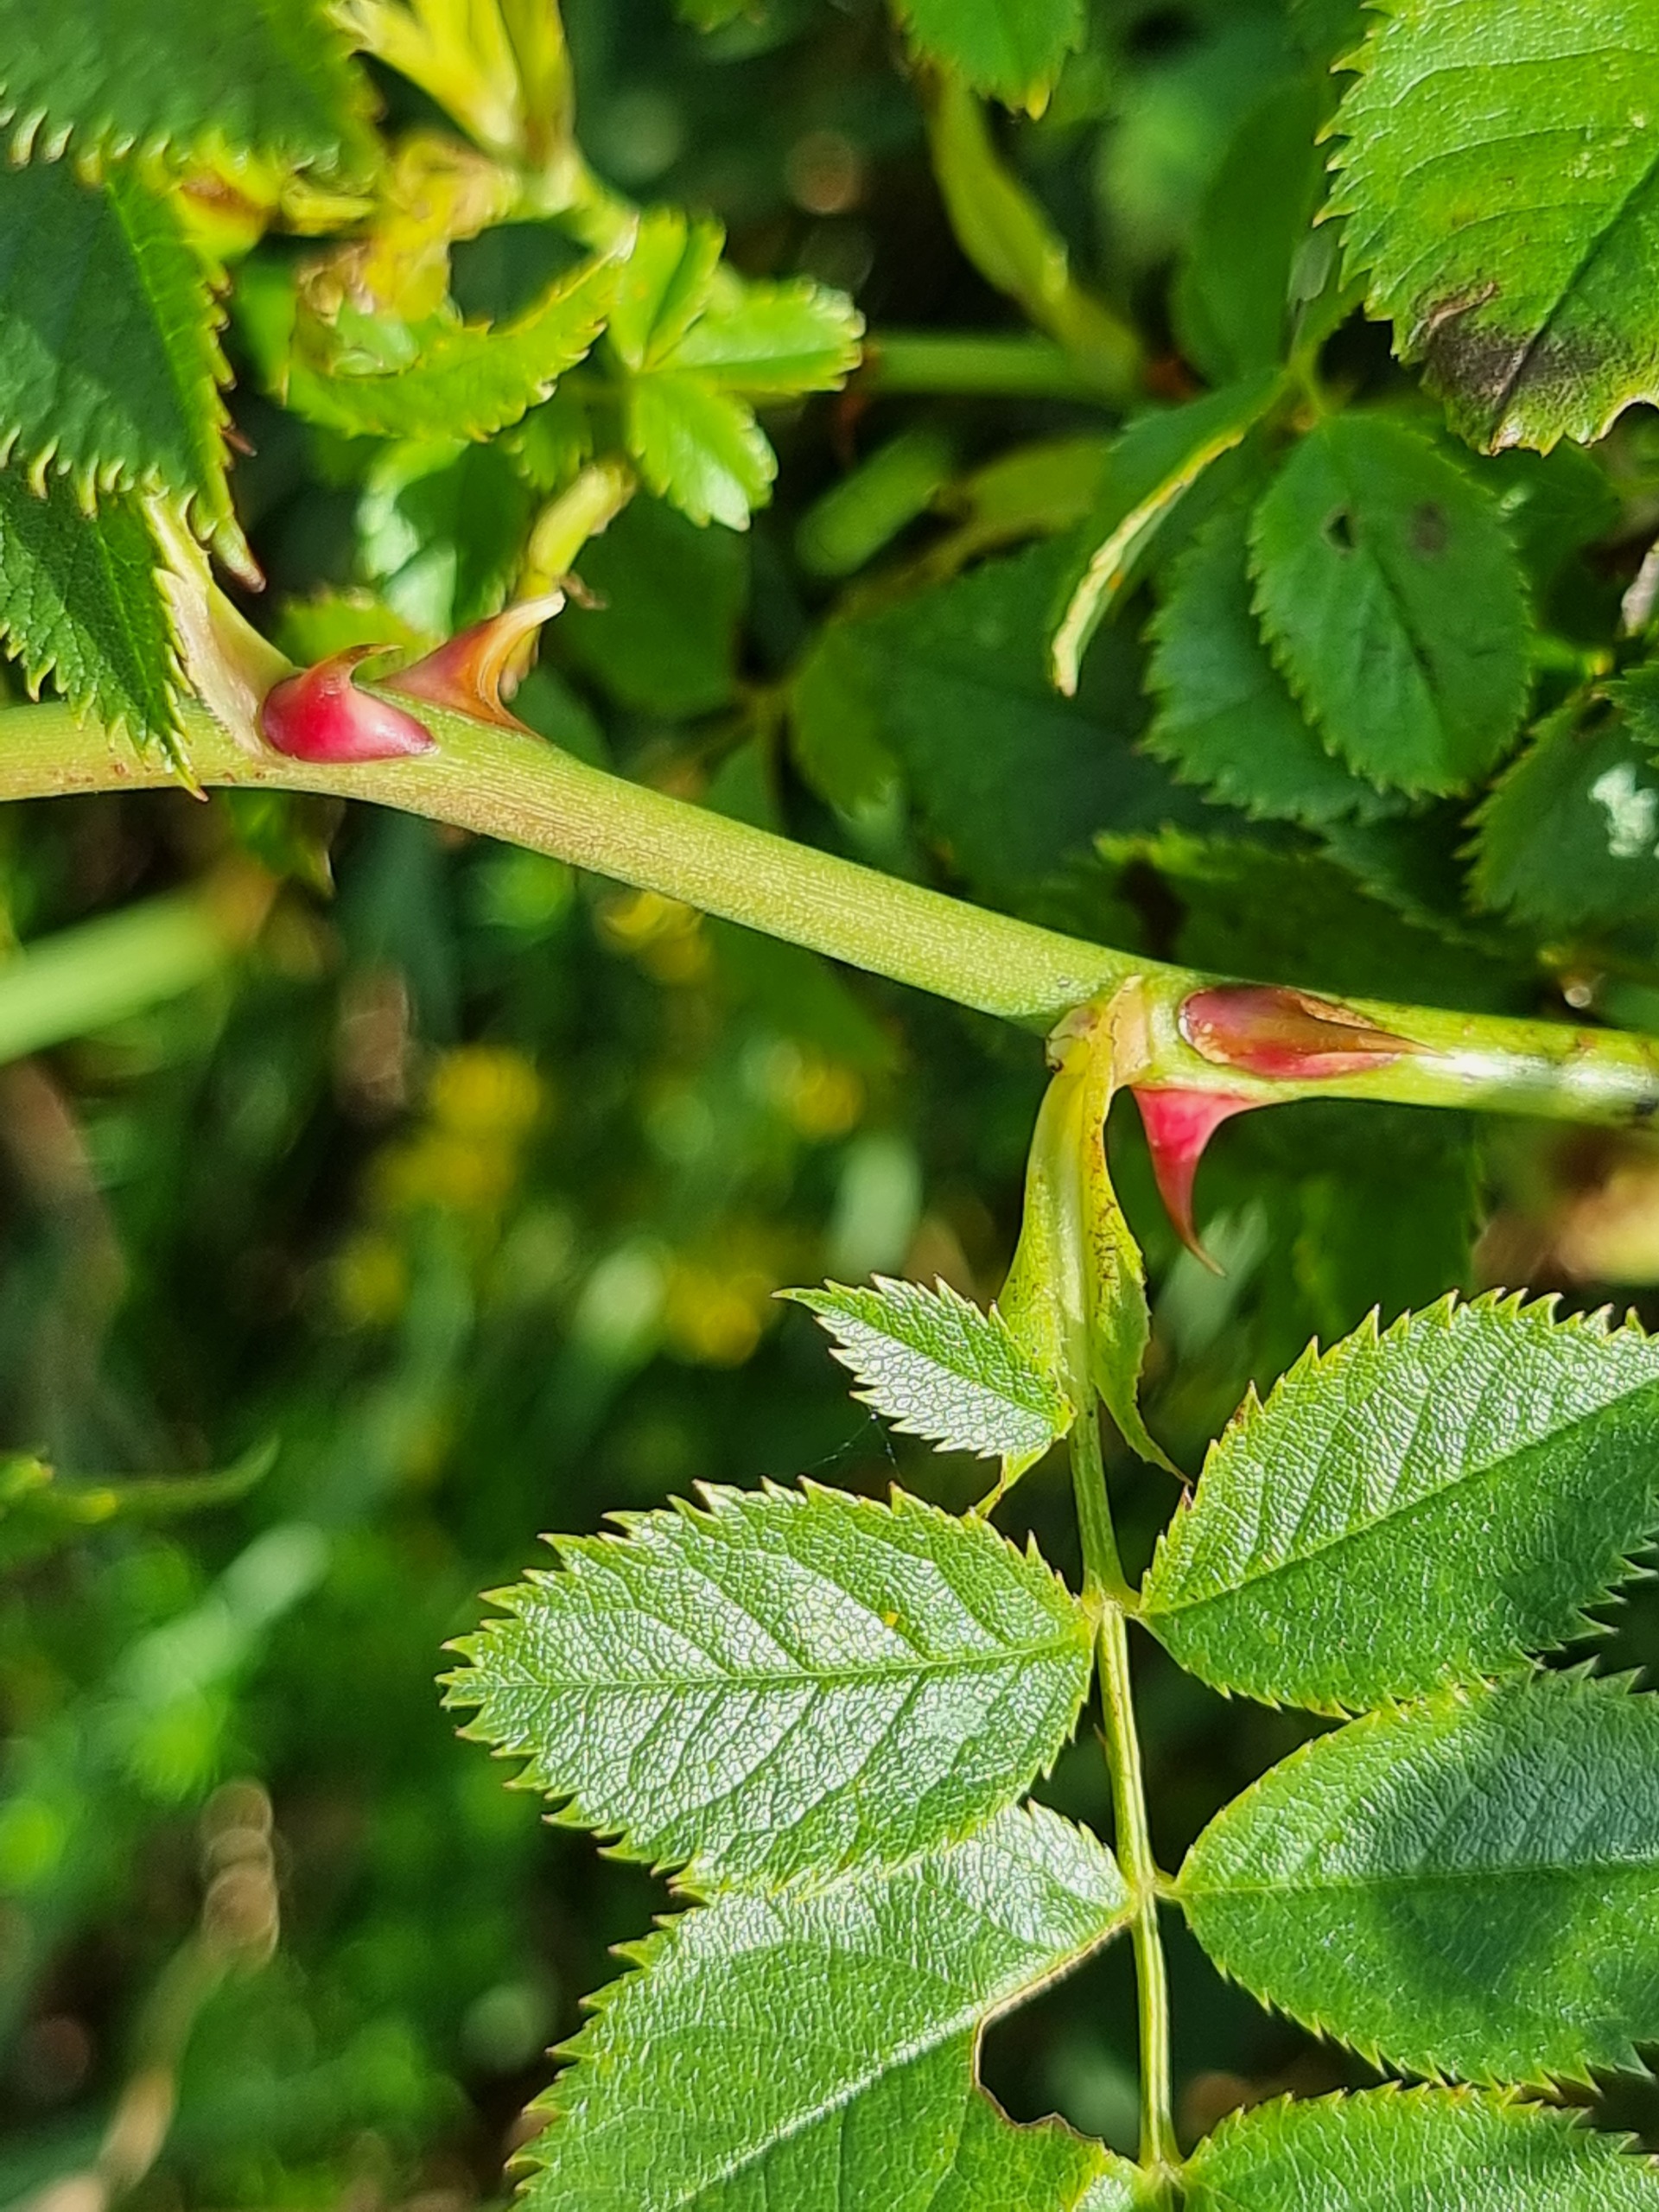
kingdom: Plantae
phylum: Tracheophyta
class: Magnoliopsida
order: Rosales
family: Rosaceae
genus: Rosa
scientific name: Rosa canina
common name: Hunde-rose
